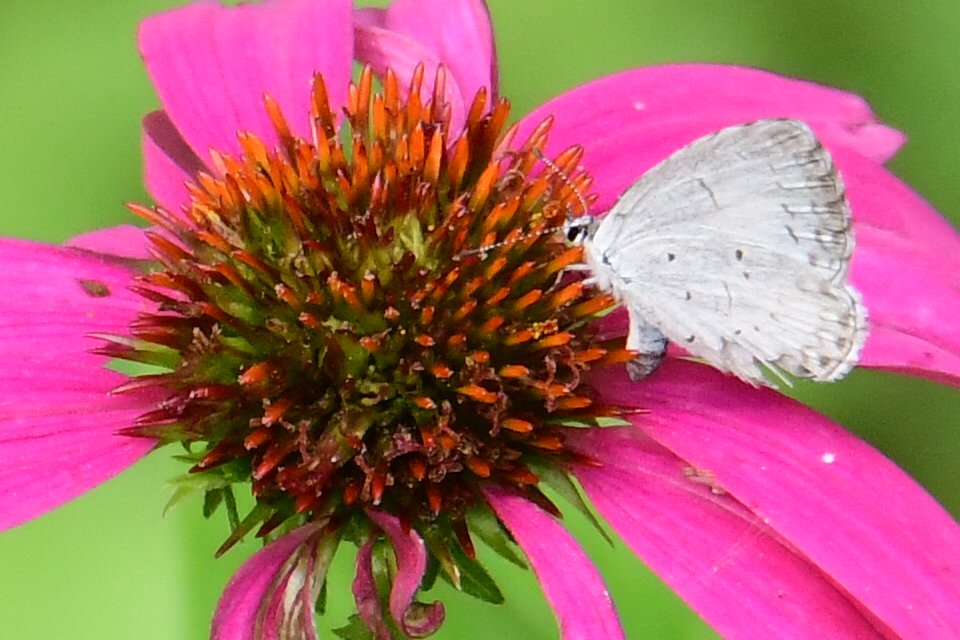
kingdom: Animalia
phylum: Arthropoda
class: Insecta
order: Lepidoptera
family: Lycaenidae
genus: Celastrina
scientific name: Celastrina
